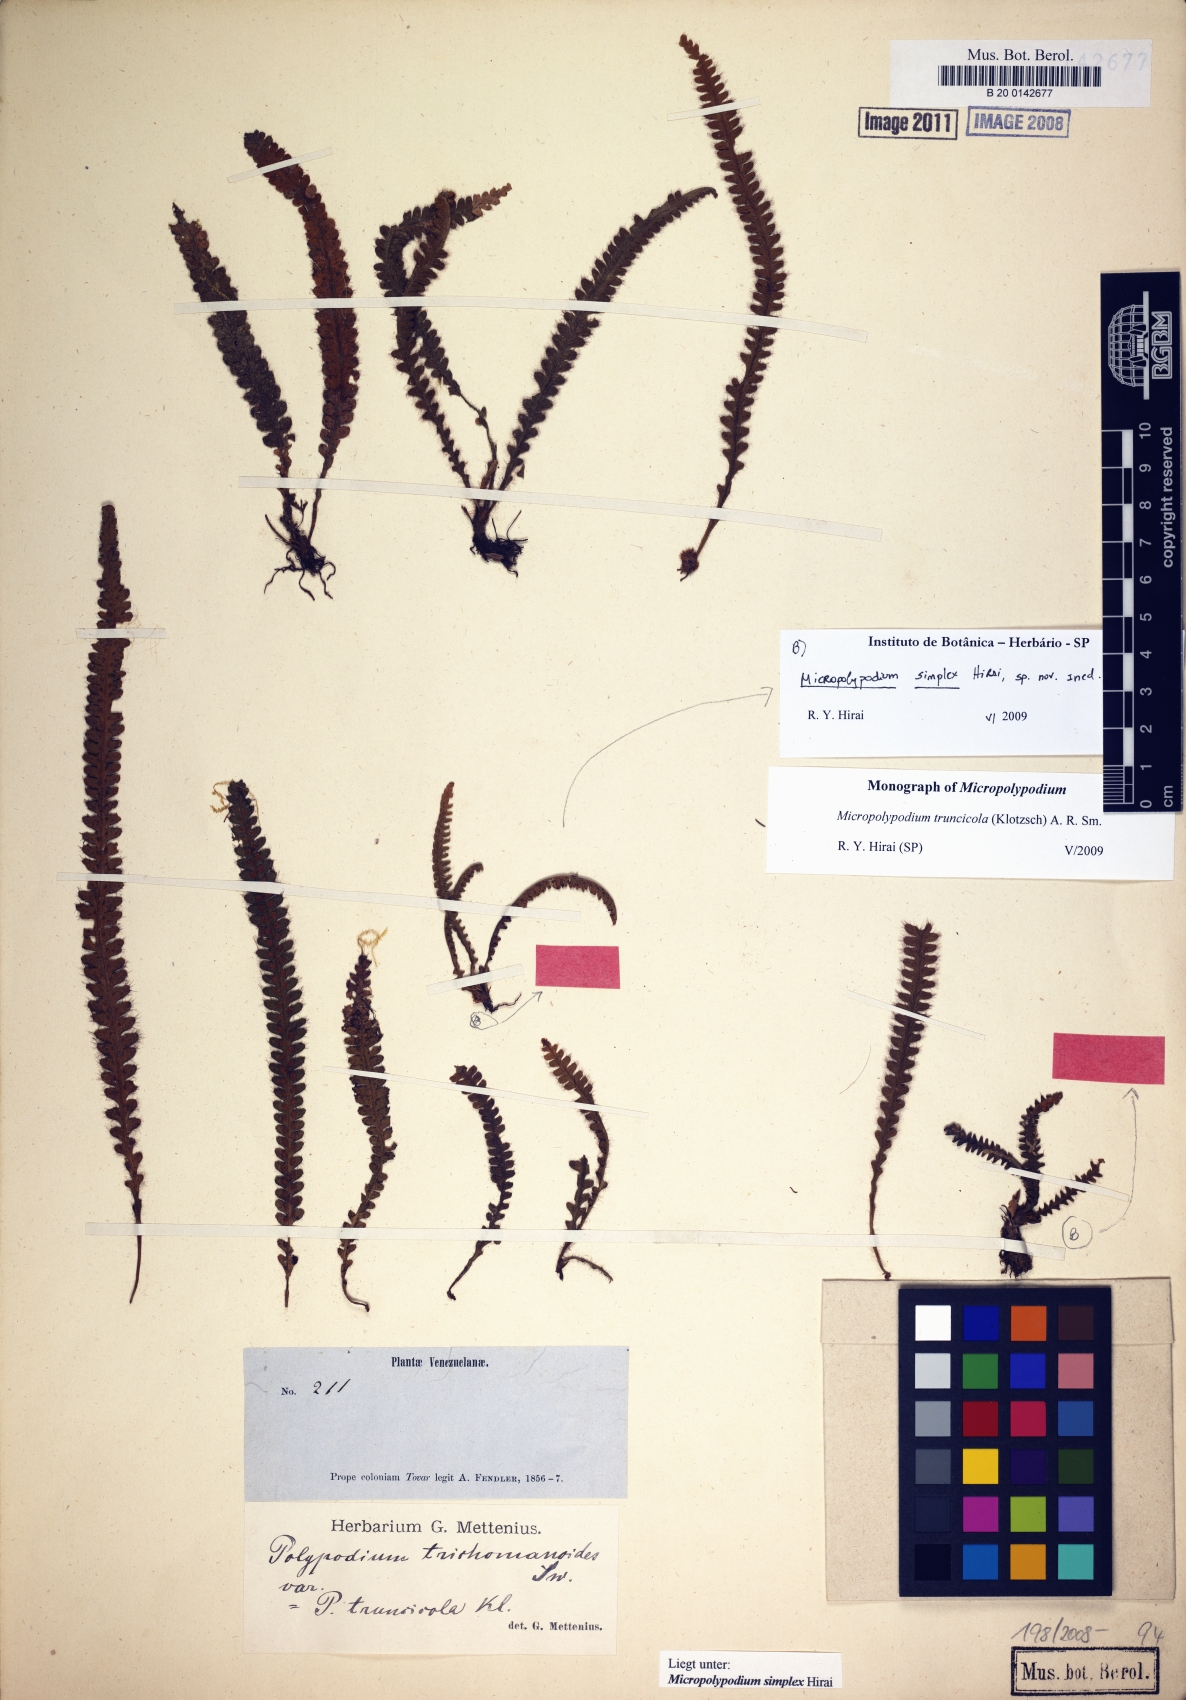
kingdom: Plantae
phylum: Tracheophyta
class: Polypodiopsida
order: Polypodiales
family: Polypodiaceae
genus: Moranopteris
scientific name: Moranopteris simplex
